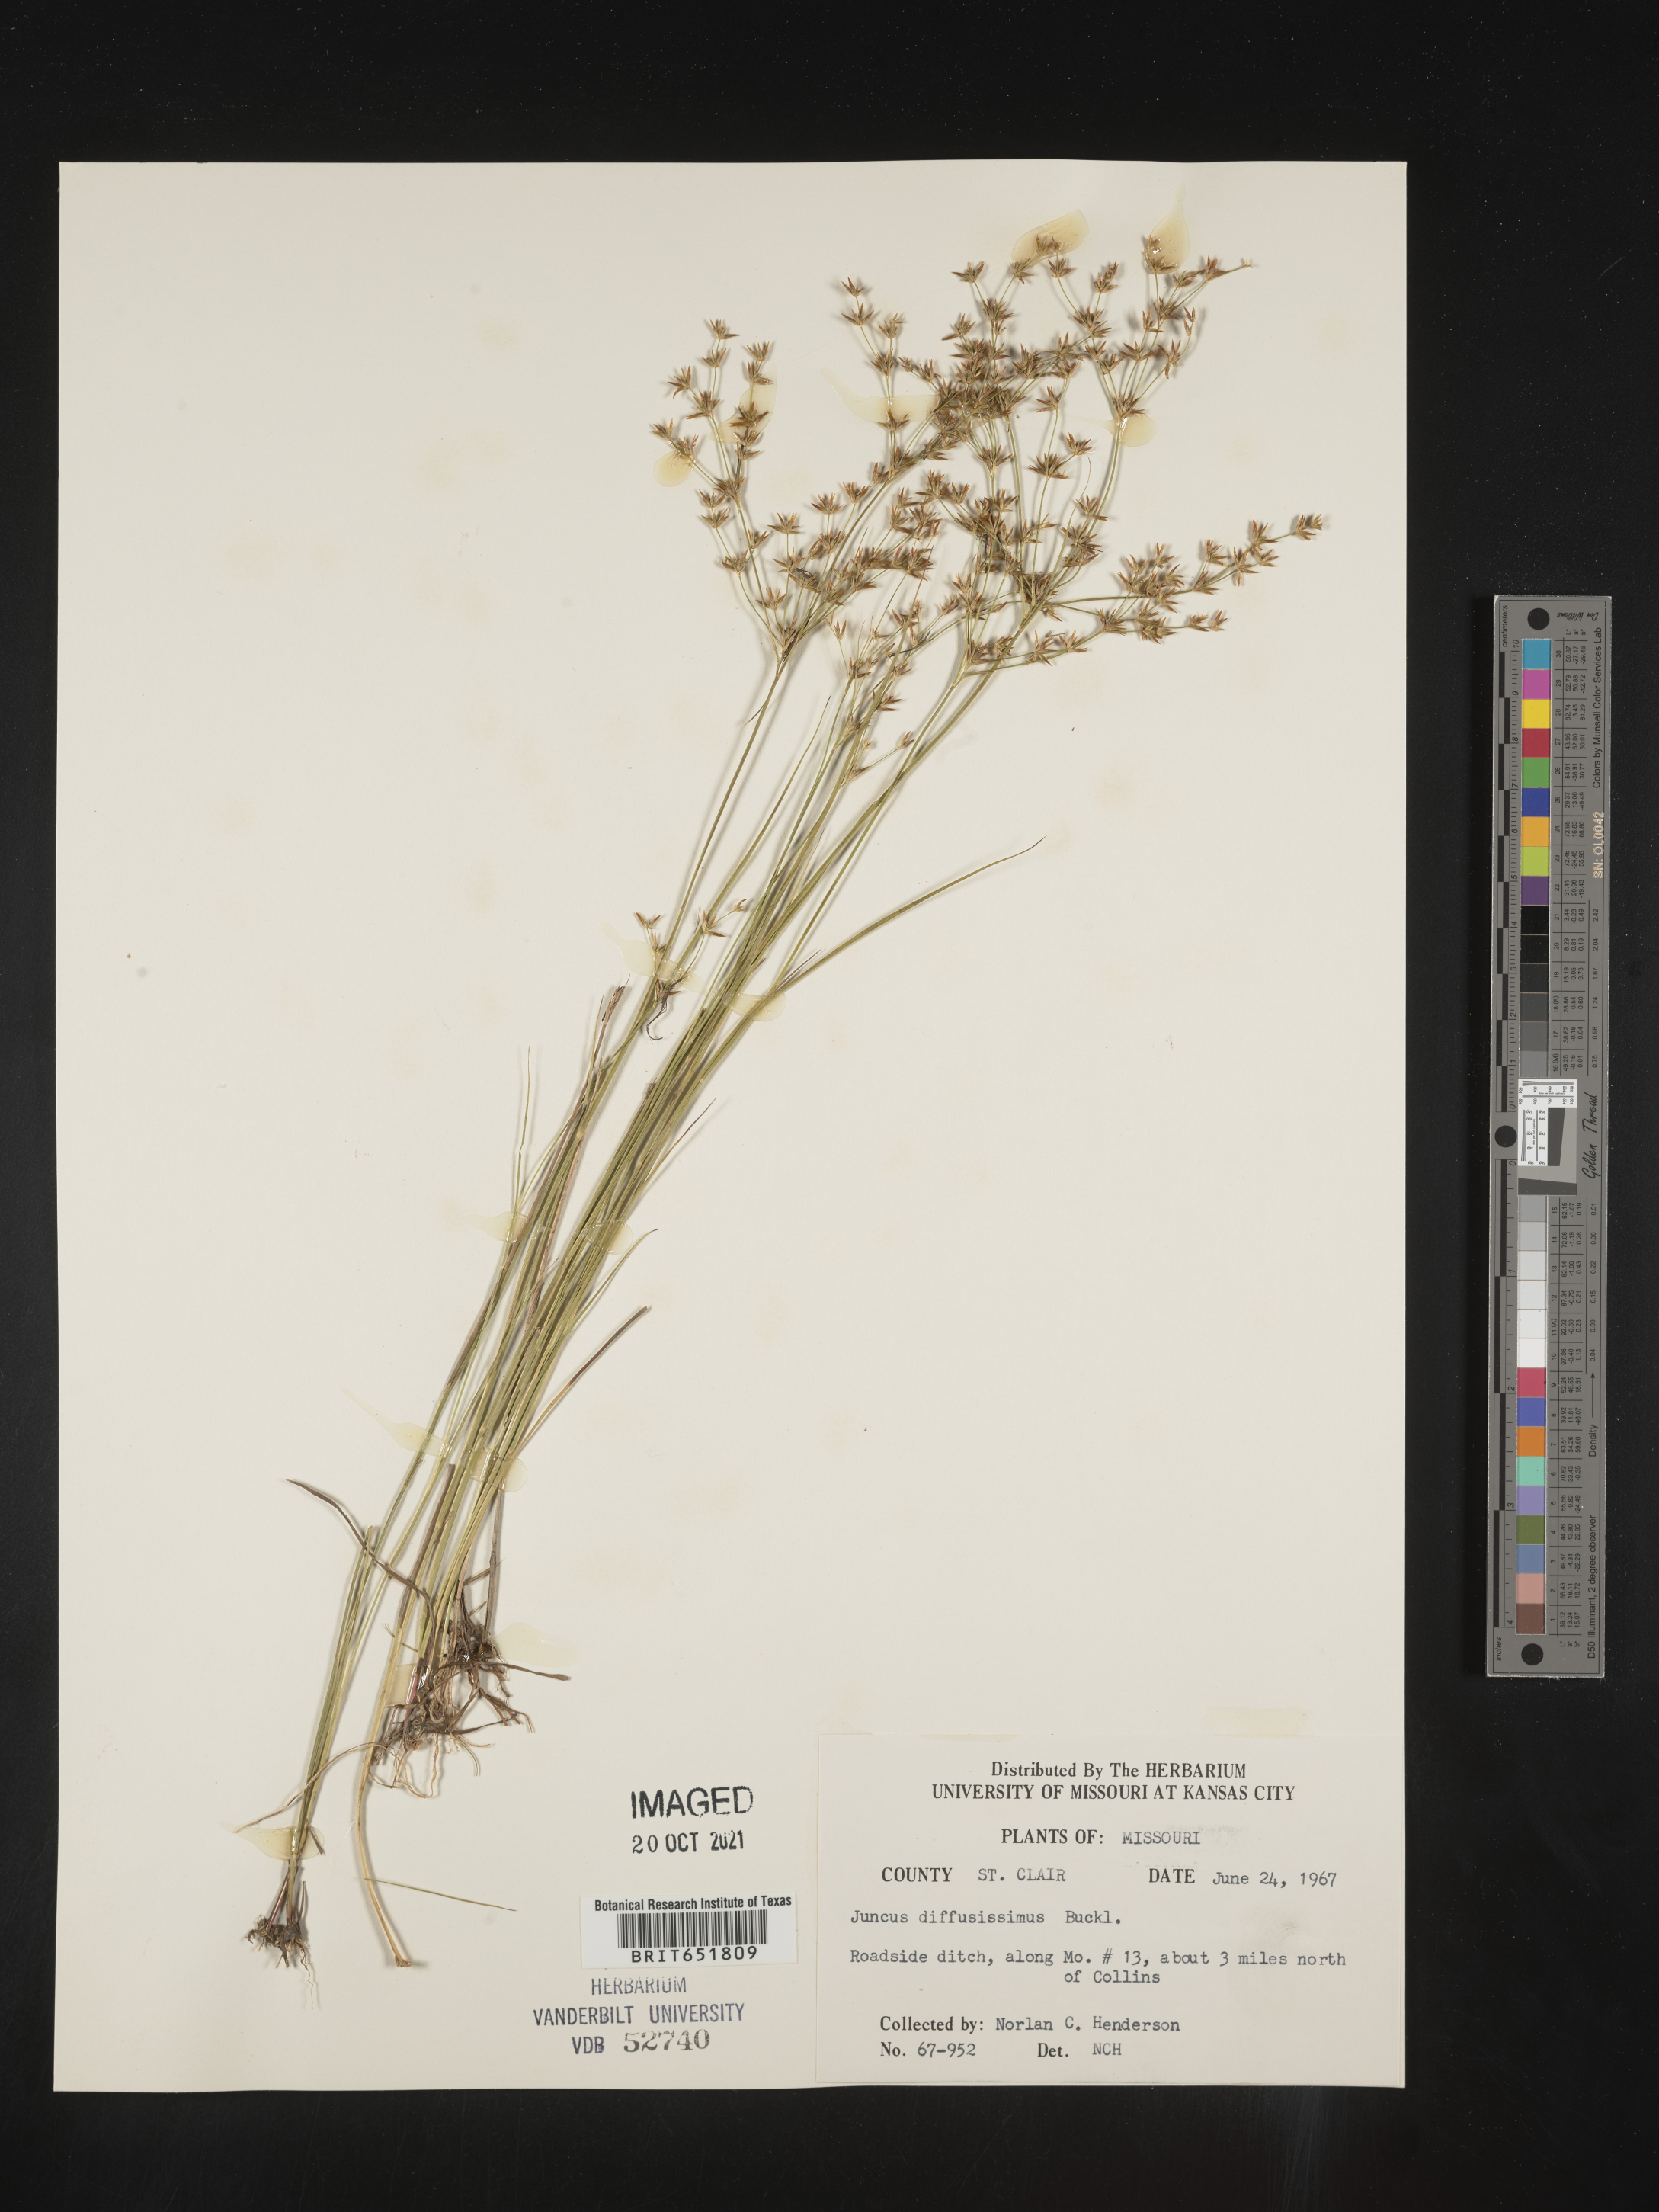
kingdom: Plantae
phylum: Tracheophyta
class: Liliopsida
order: Poales
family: Juncaceae
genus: Juncus
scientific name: Juncus diffusissimus
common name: Slimpod rush
